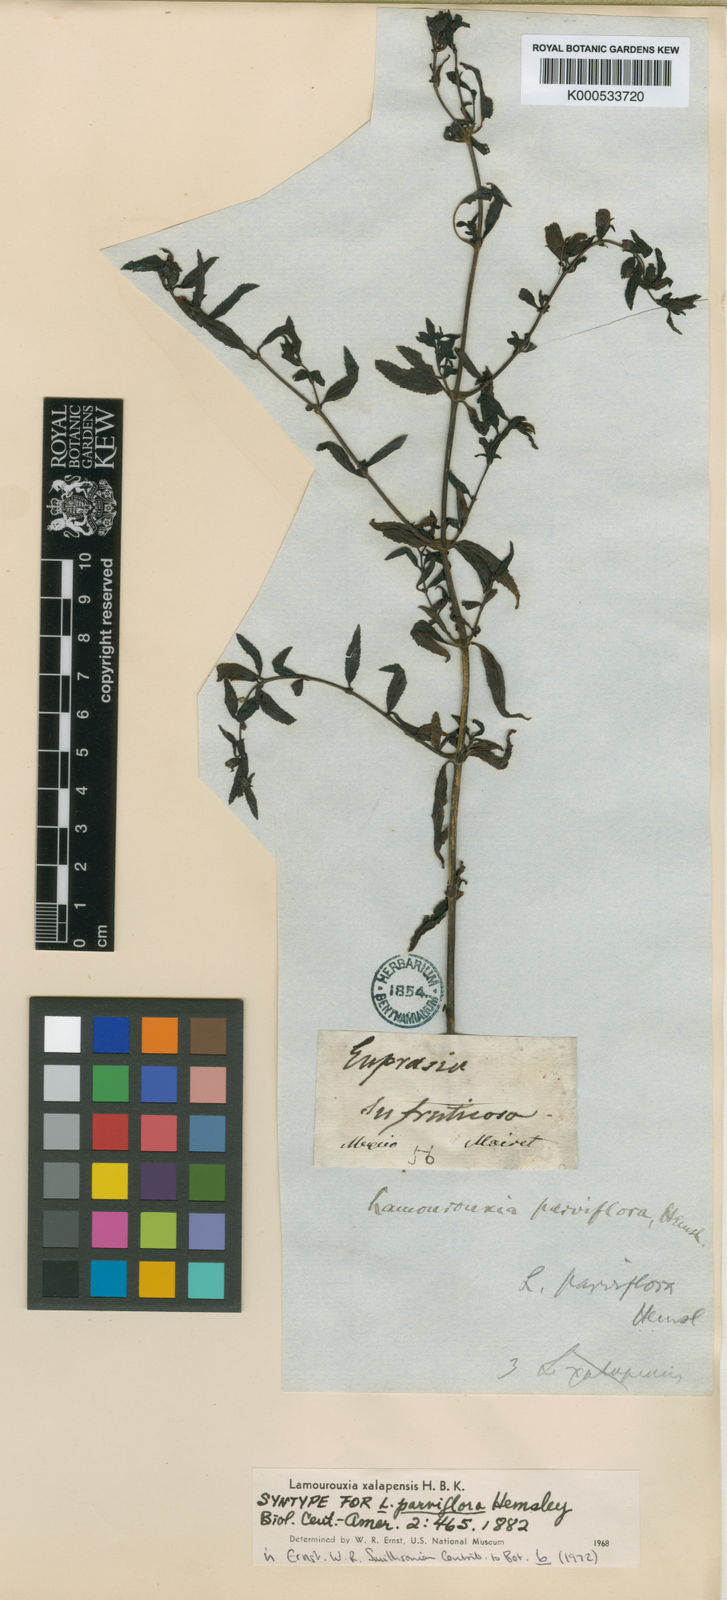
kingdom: Plantae
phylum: Tracheophyta
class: Magnoliopsida
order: Lamiales
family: Orobanchaceae
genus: Lamourouxia
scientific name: Lamourouxia xalapensis
